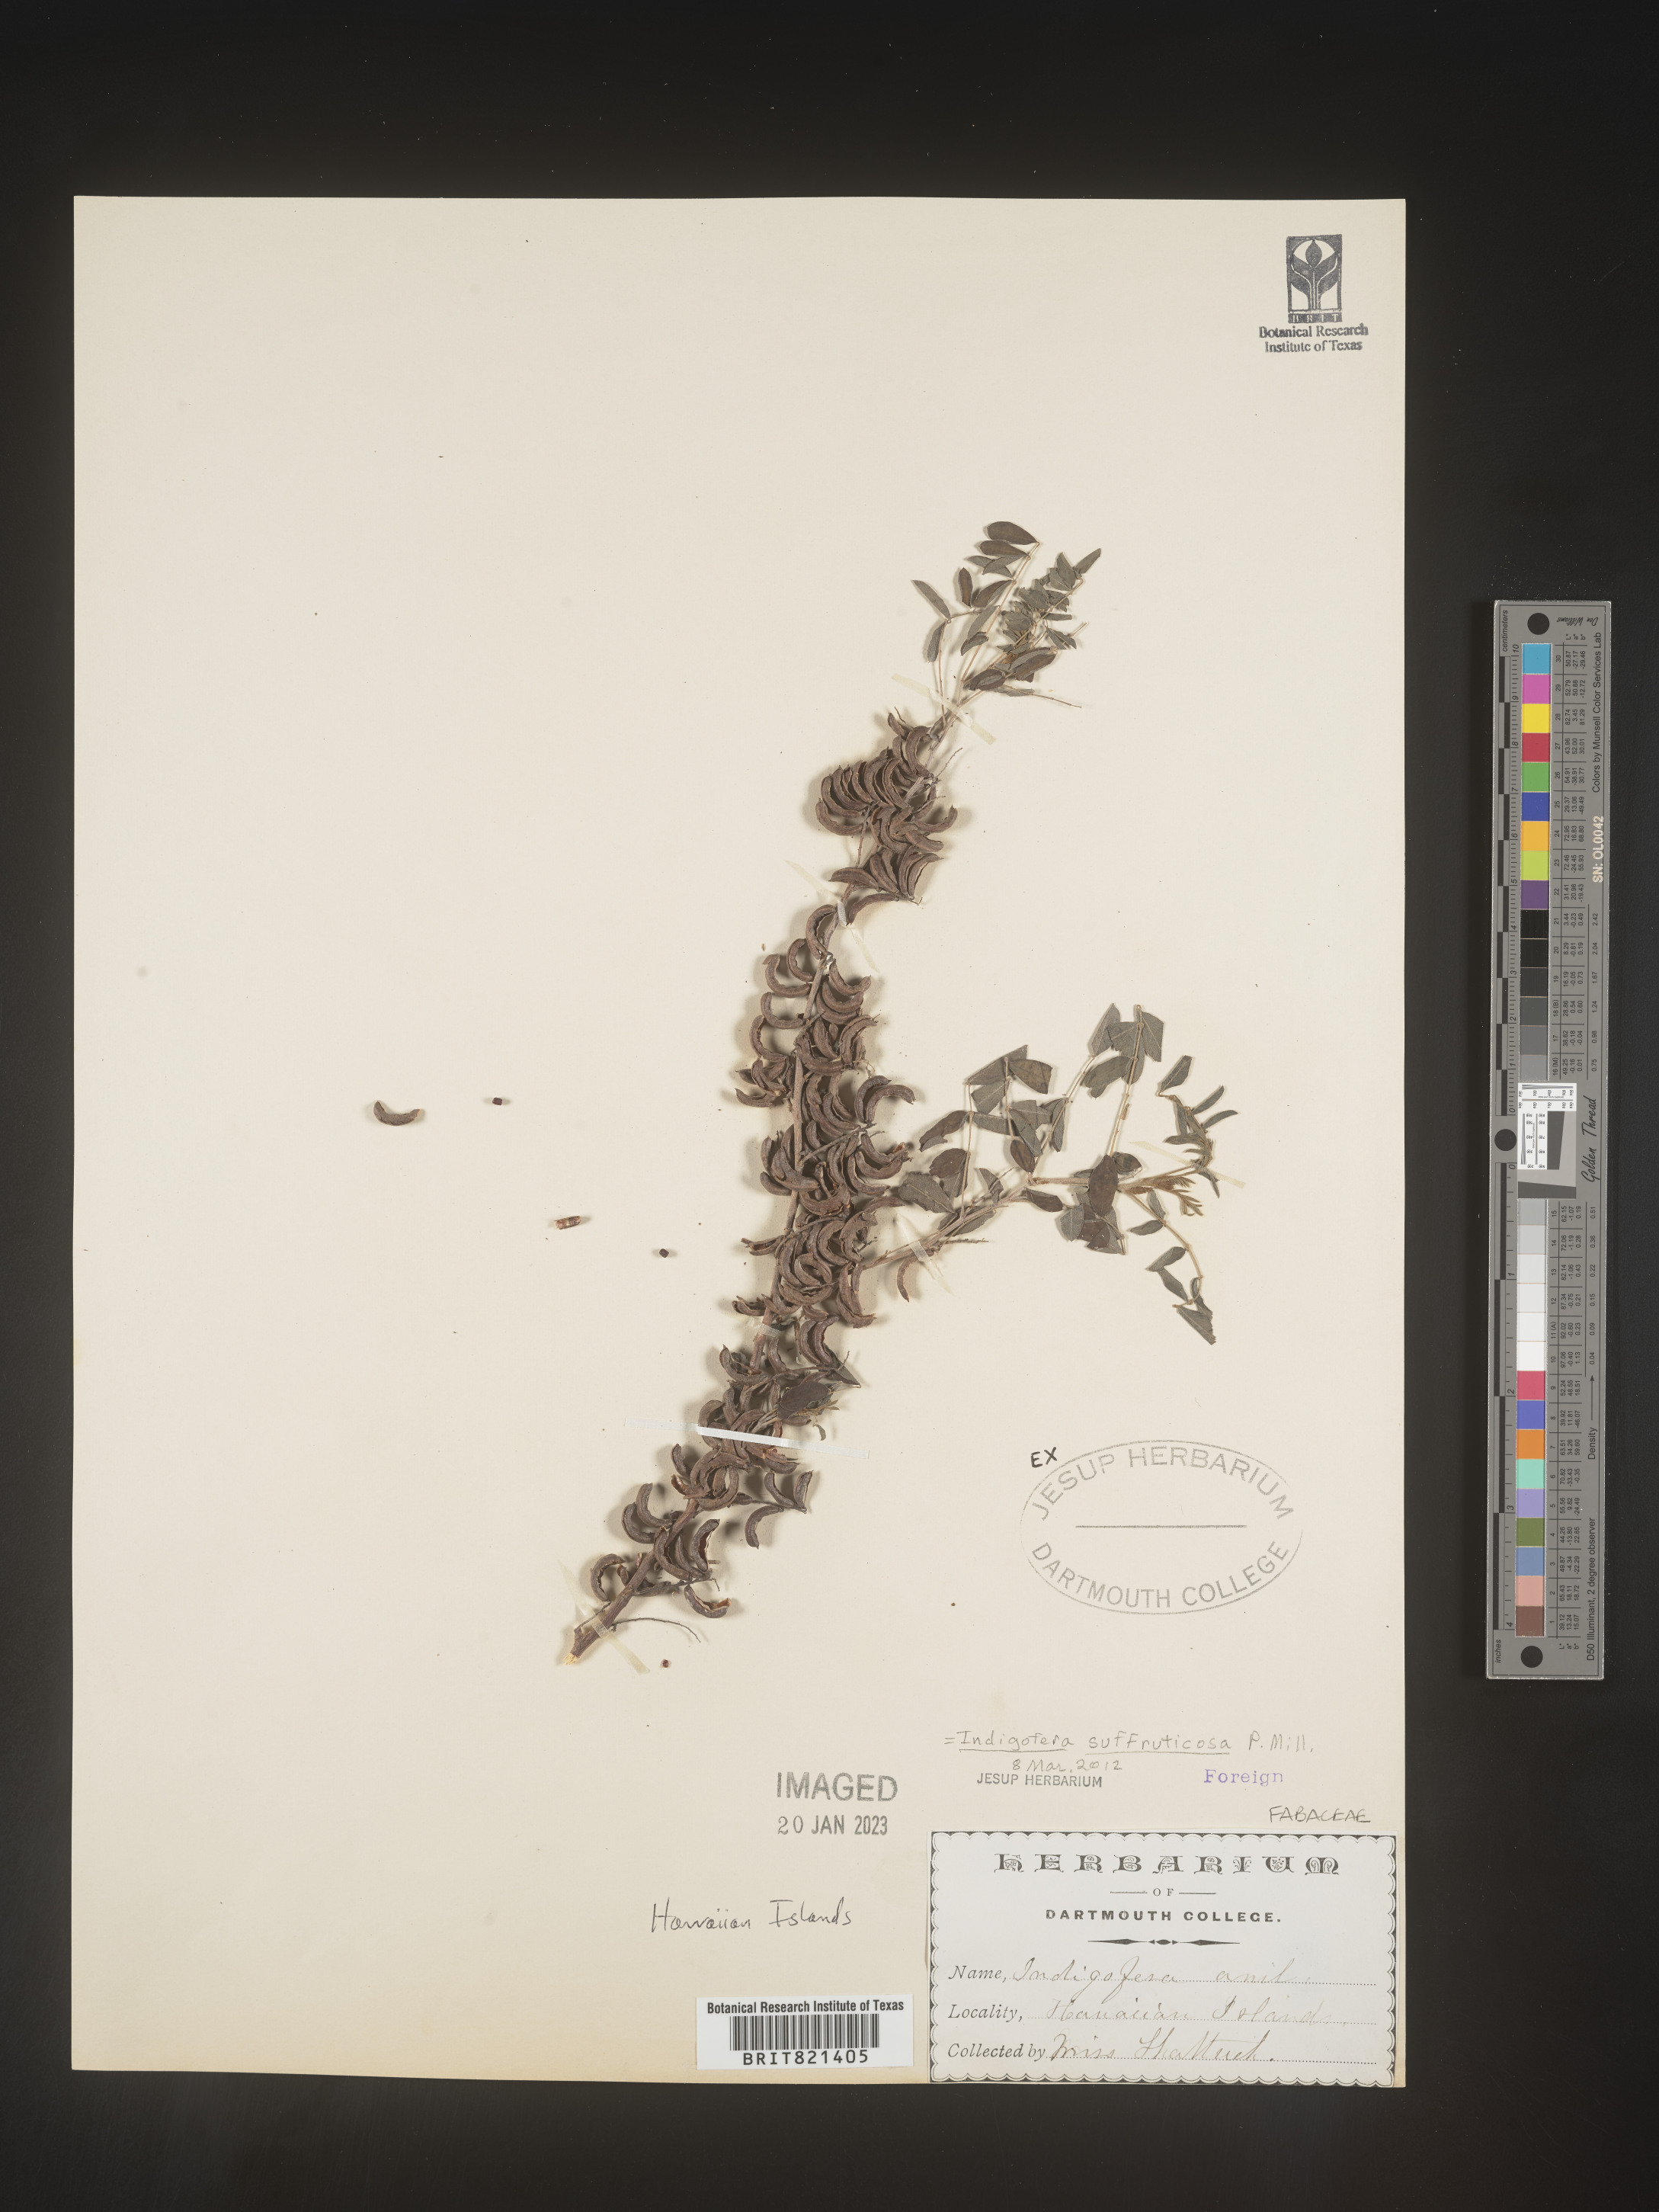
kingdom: Plantae
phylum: Tracheophyta
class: Magnoliopsida
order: Fabales
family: Fabaceae
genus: Indigofera
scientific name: Indigofera
